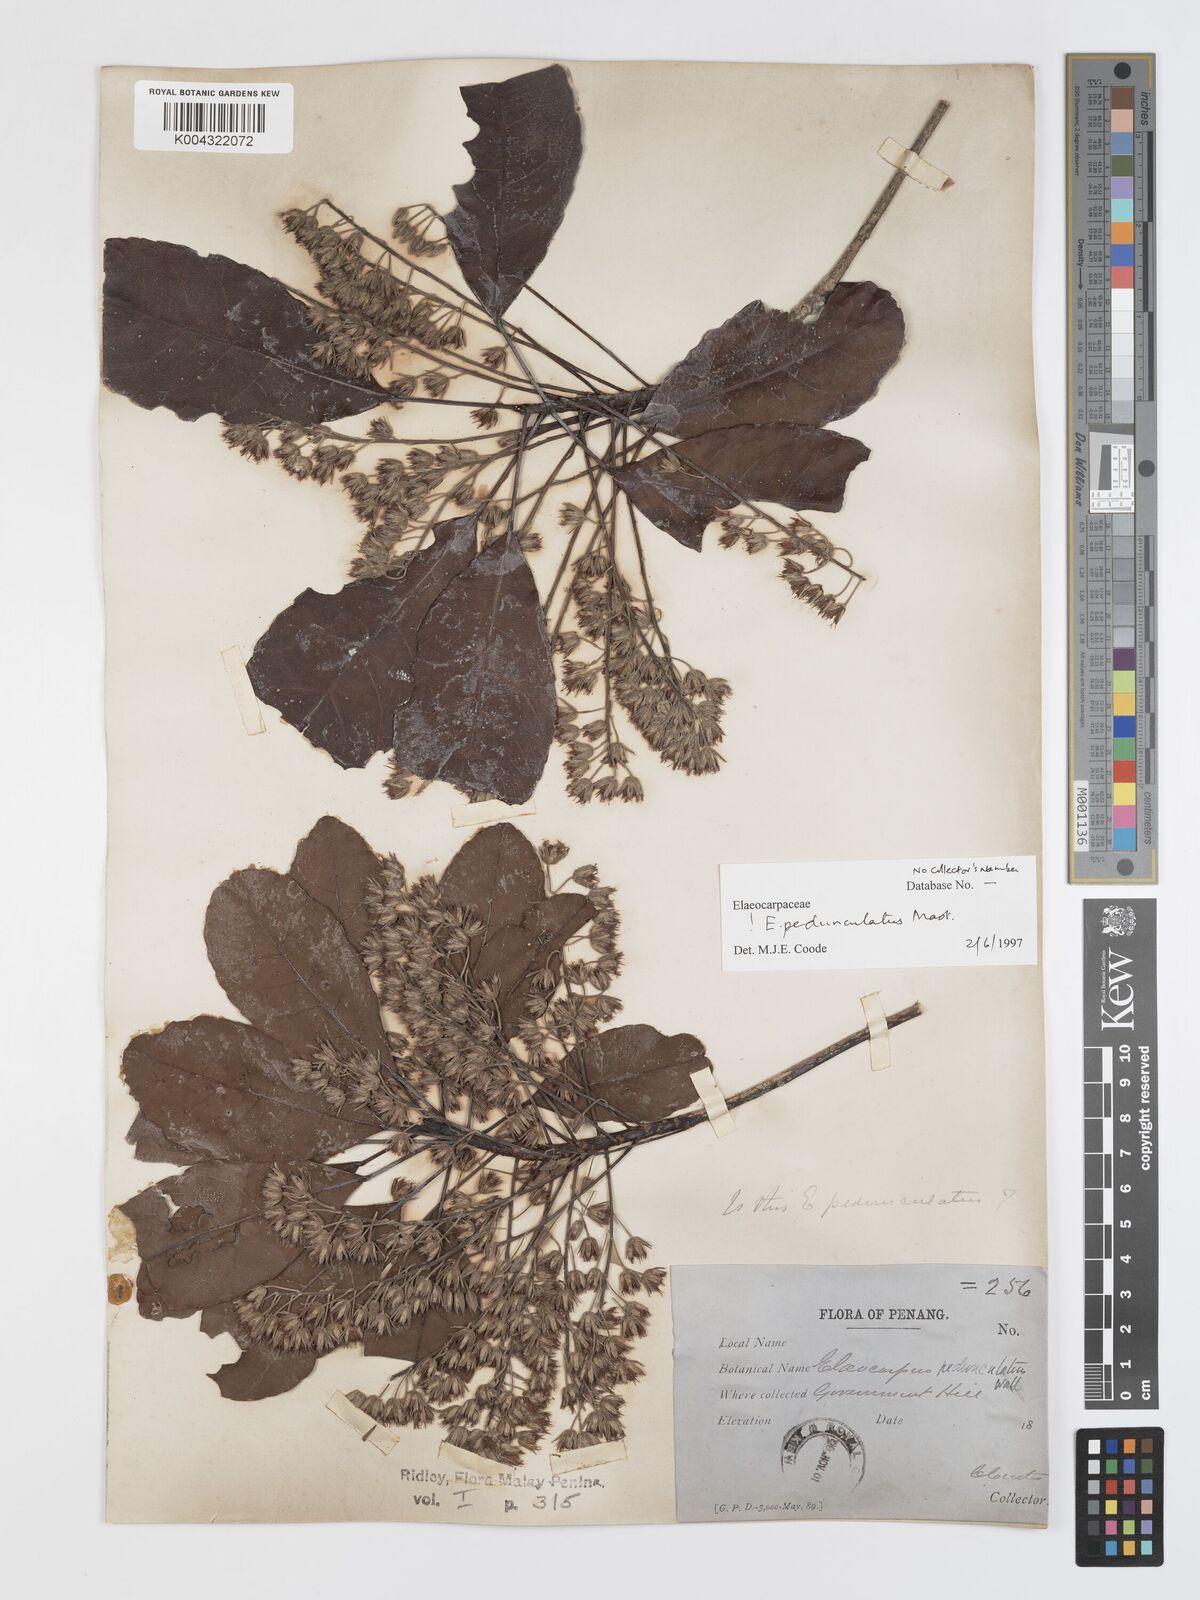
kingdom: Plantae
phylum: Tracheophyta
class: Magnoliopsida
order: Oxalidales
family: Elaeocarpaceae
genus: Elaeocarpus
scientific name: Elaeocarpus pedunculatus
